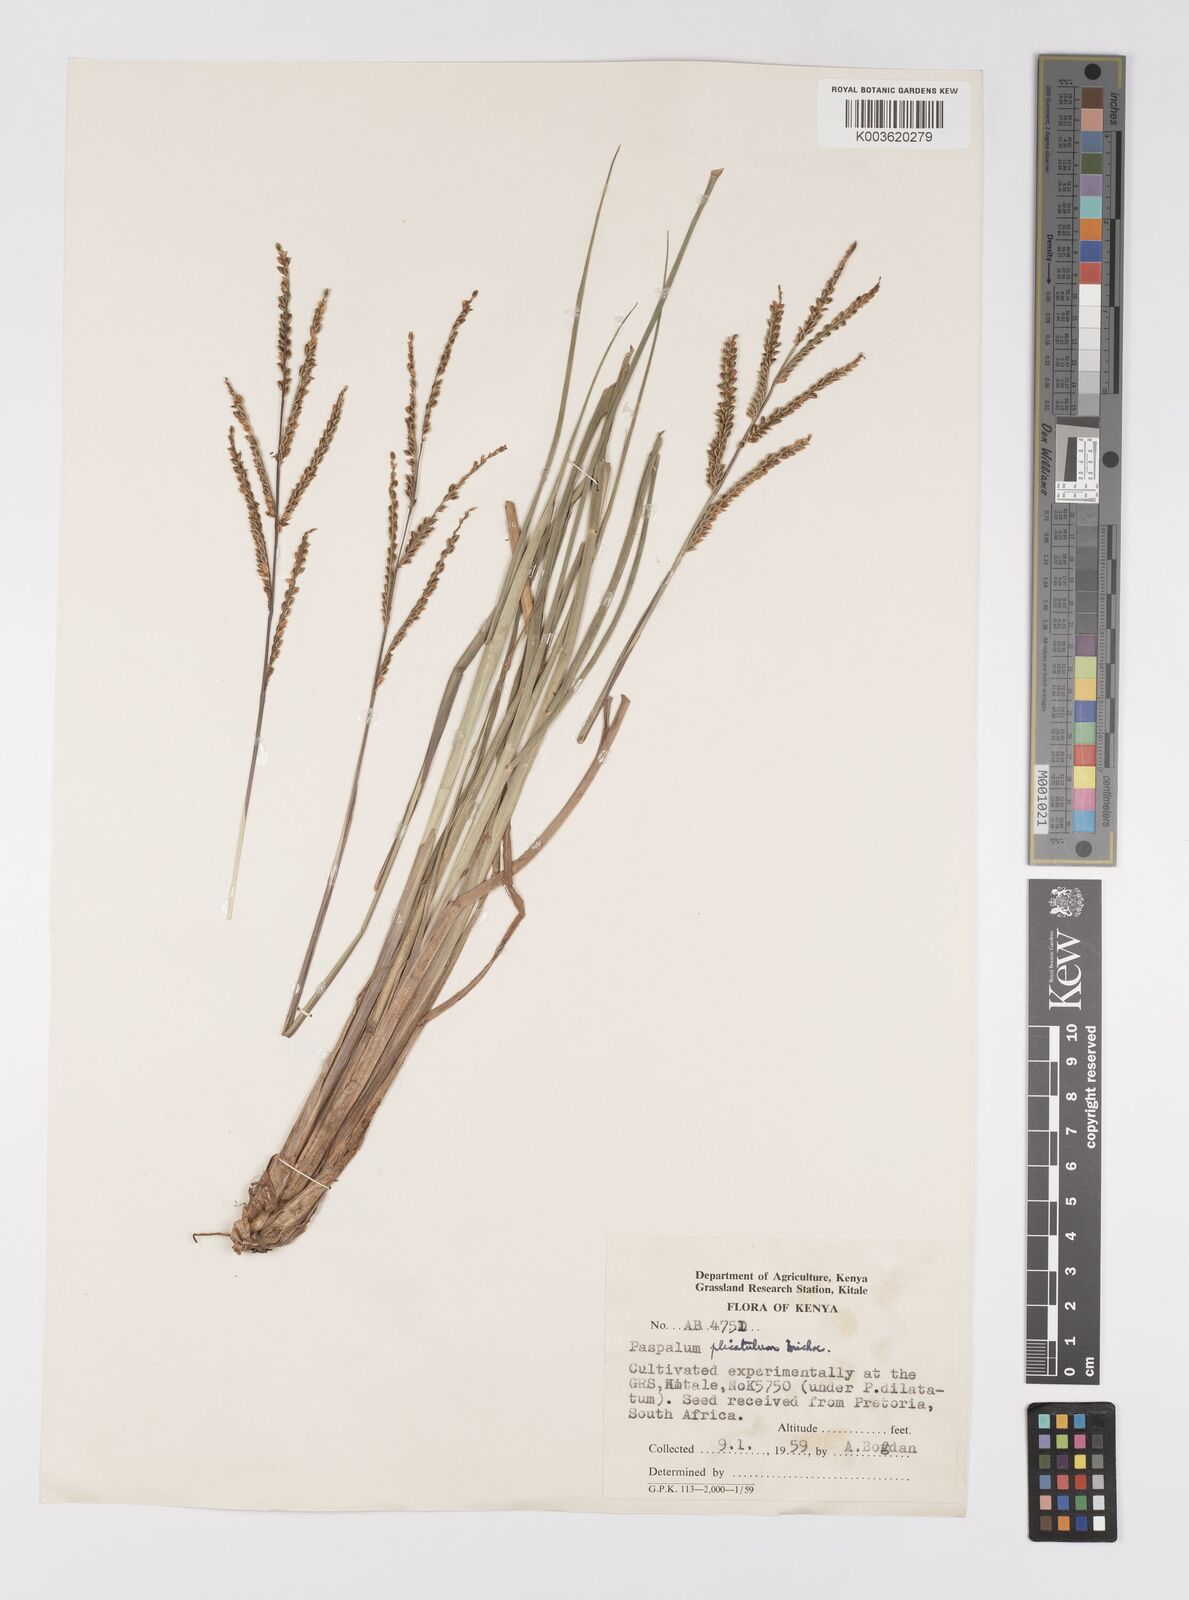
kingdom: Plantae
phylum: Tracheophyta
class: Liliopsida
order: Poales
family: Poaceae
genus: Paspalum
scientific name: Paspalum plicatulum
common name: Top paspalum
